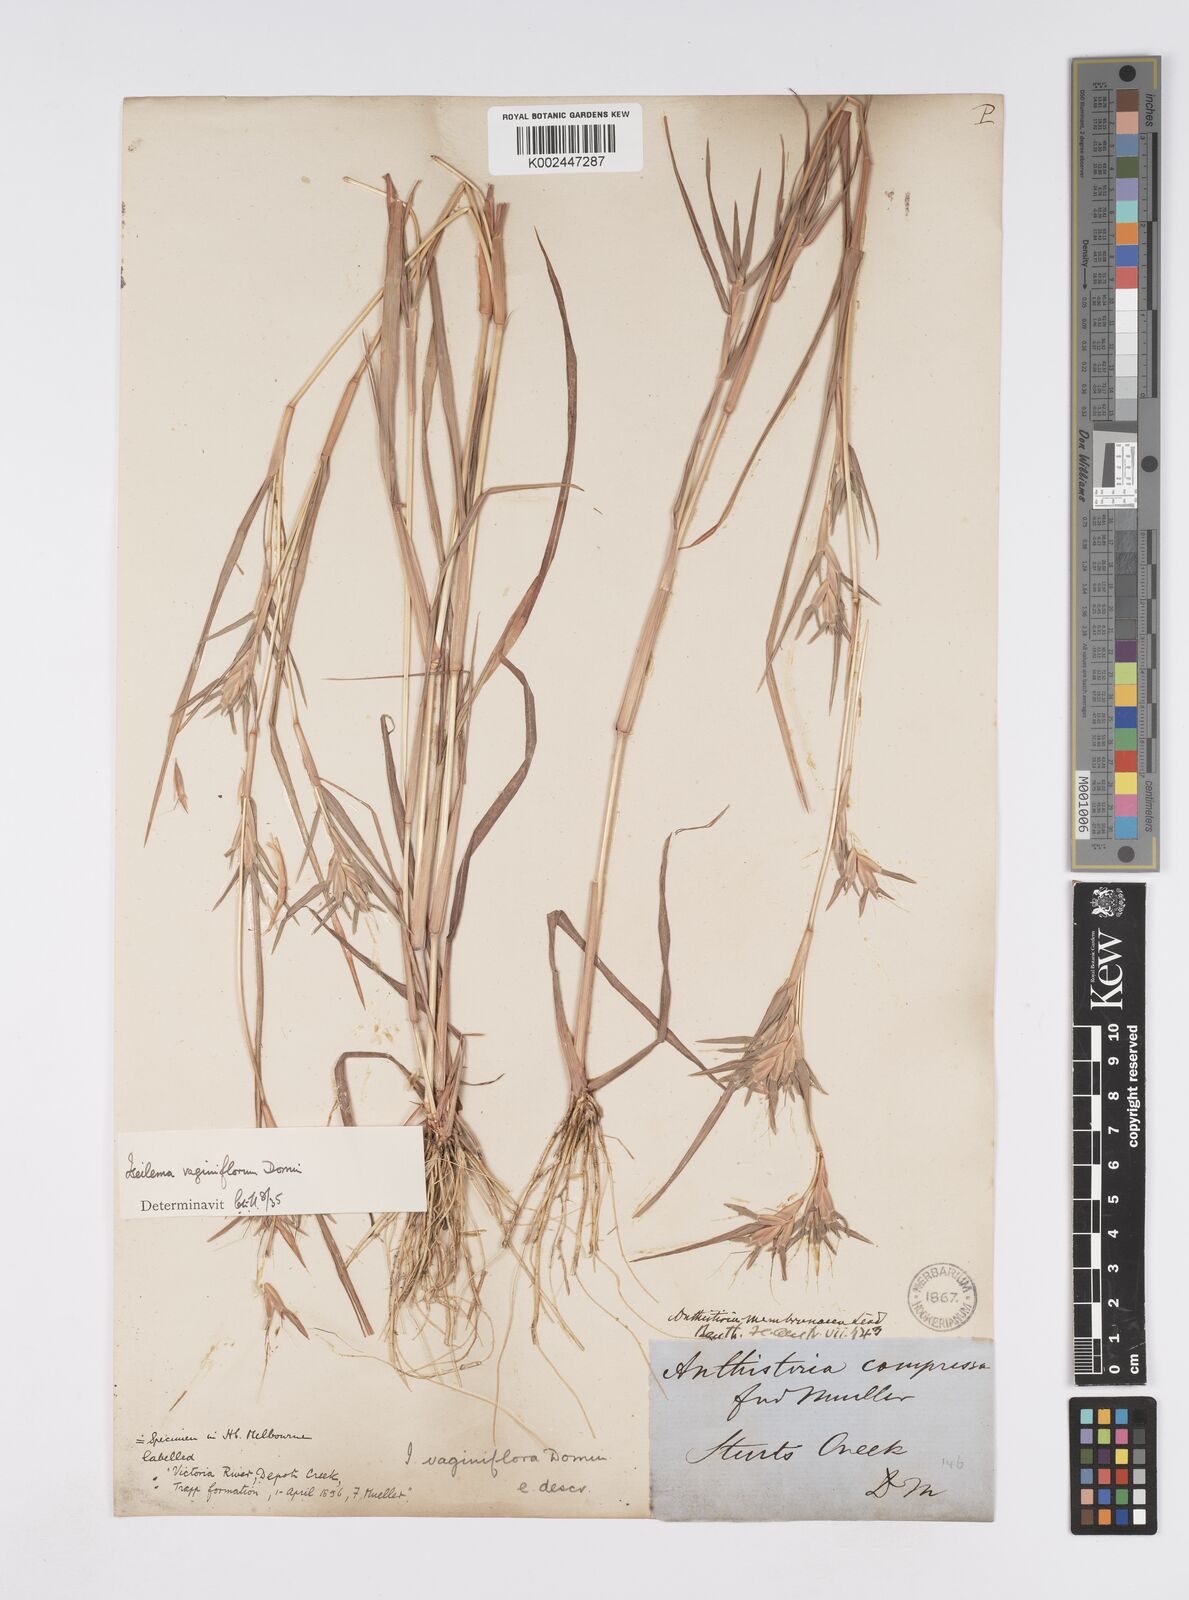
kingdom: Plantae
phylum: Tracheophyta
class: Liliopsida
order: Poales
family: Poaceae
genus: Iseilema
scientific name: Iseilema vaginiflorum
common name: Red flinders grass
